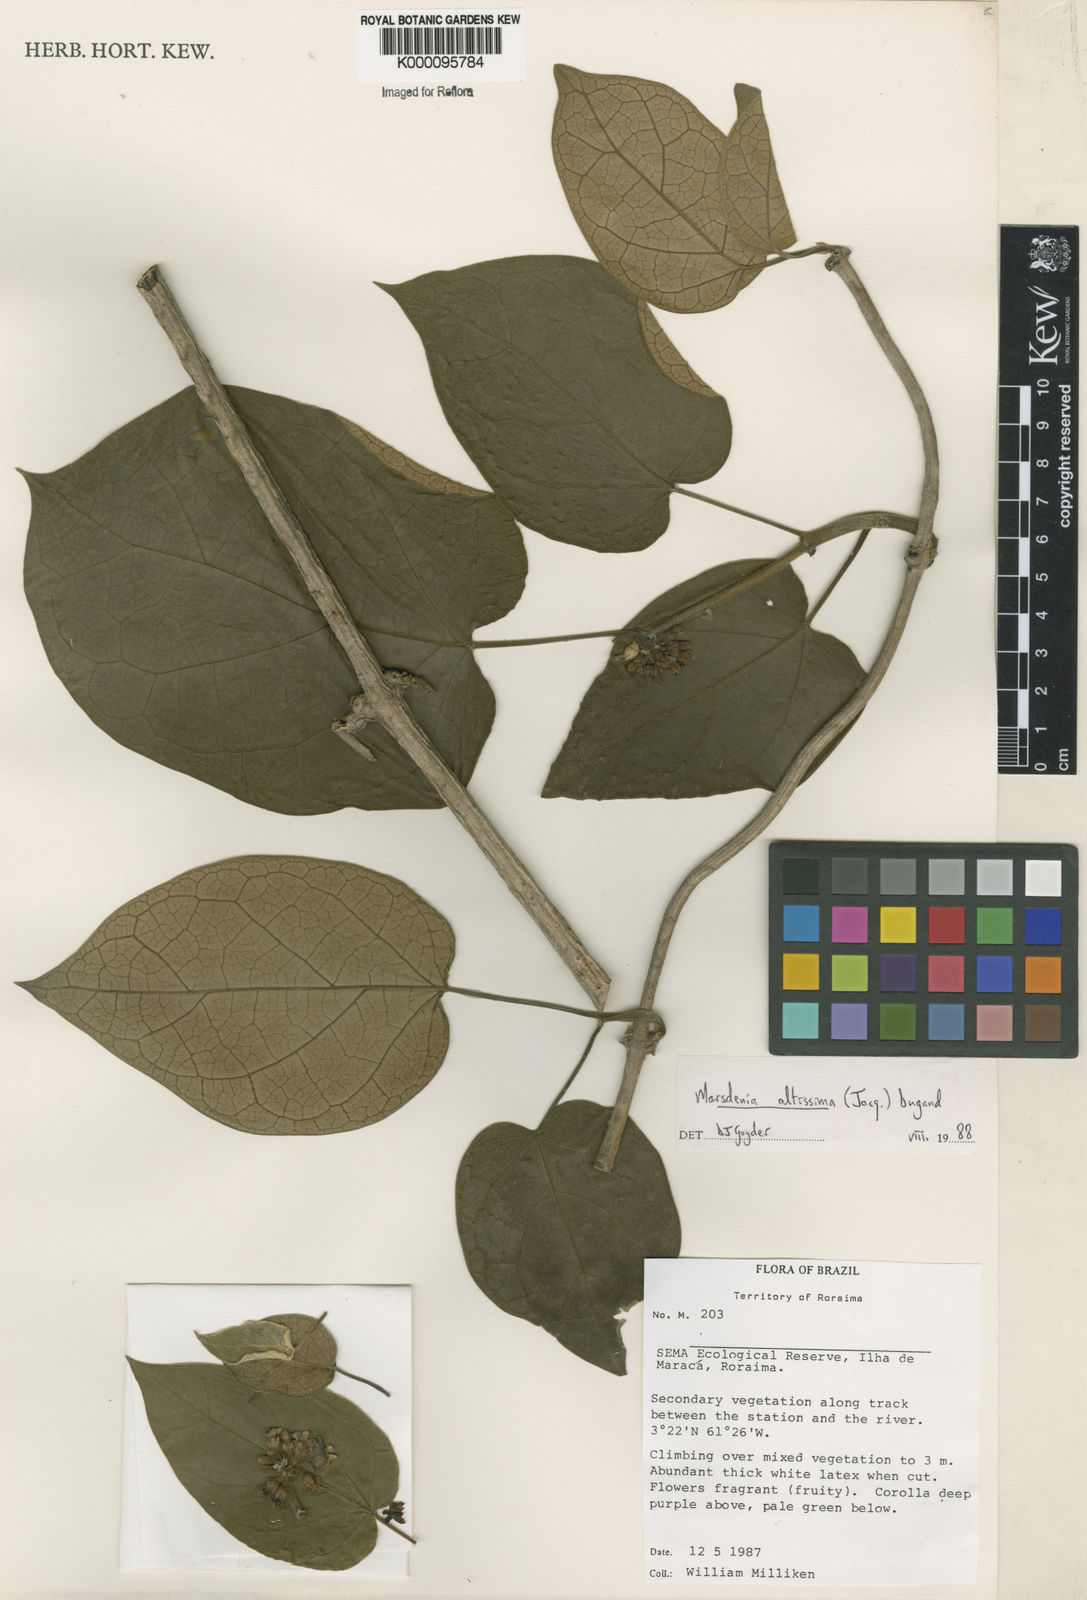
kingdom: Plantae
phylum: Tracheophyta
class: Magnoliopsida
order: Gentianales
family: Apocynaceae
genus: Ruehssia
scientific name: Ruehssia altissima
